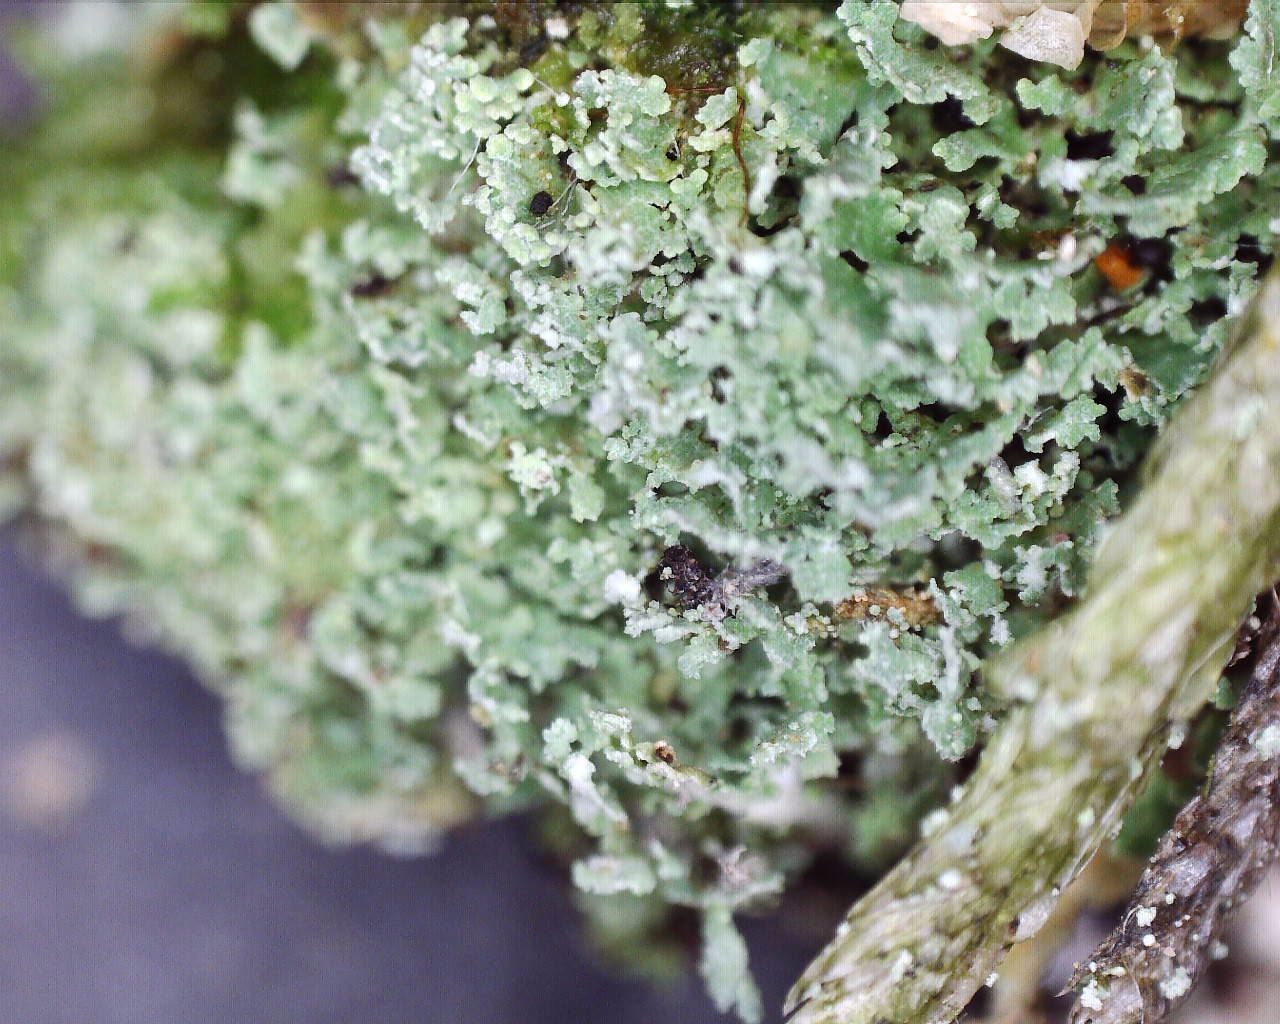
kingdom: Fungi
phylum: Ascomycota
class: Lecanoromycetes
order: Lecanorales
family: Cladoniaceae
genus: Cladonia
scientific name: Cladonia caespiticia
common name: tæppe-bægerlav
